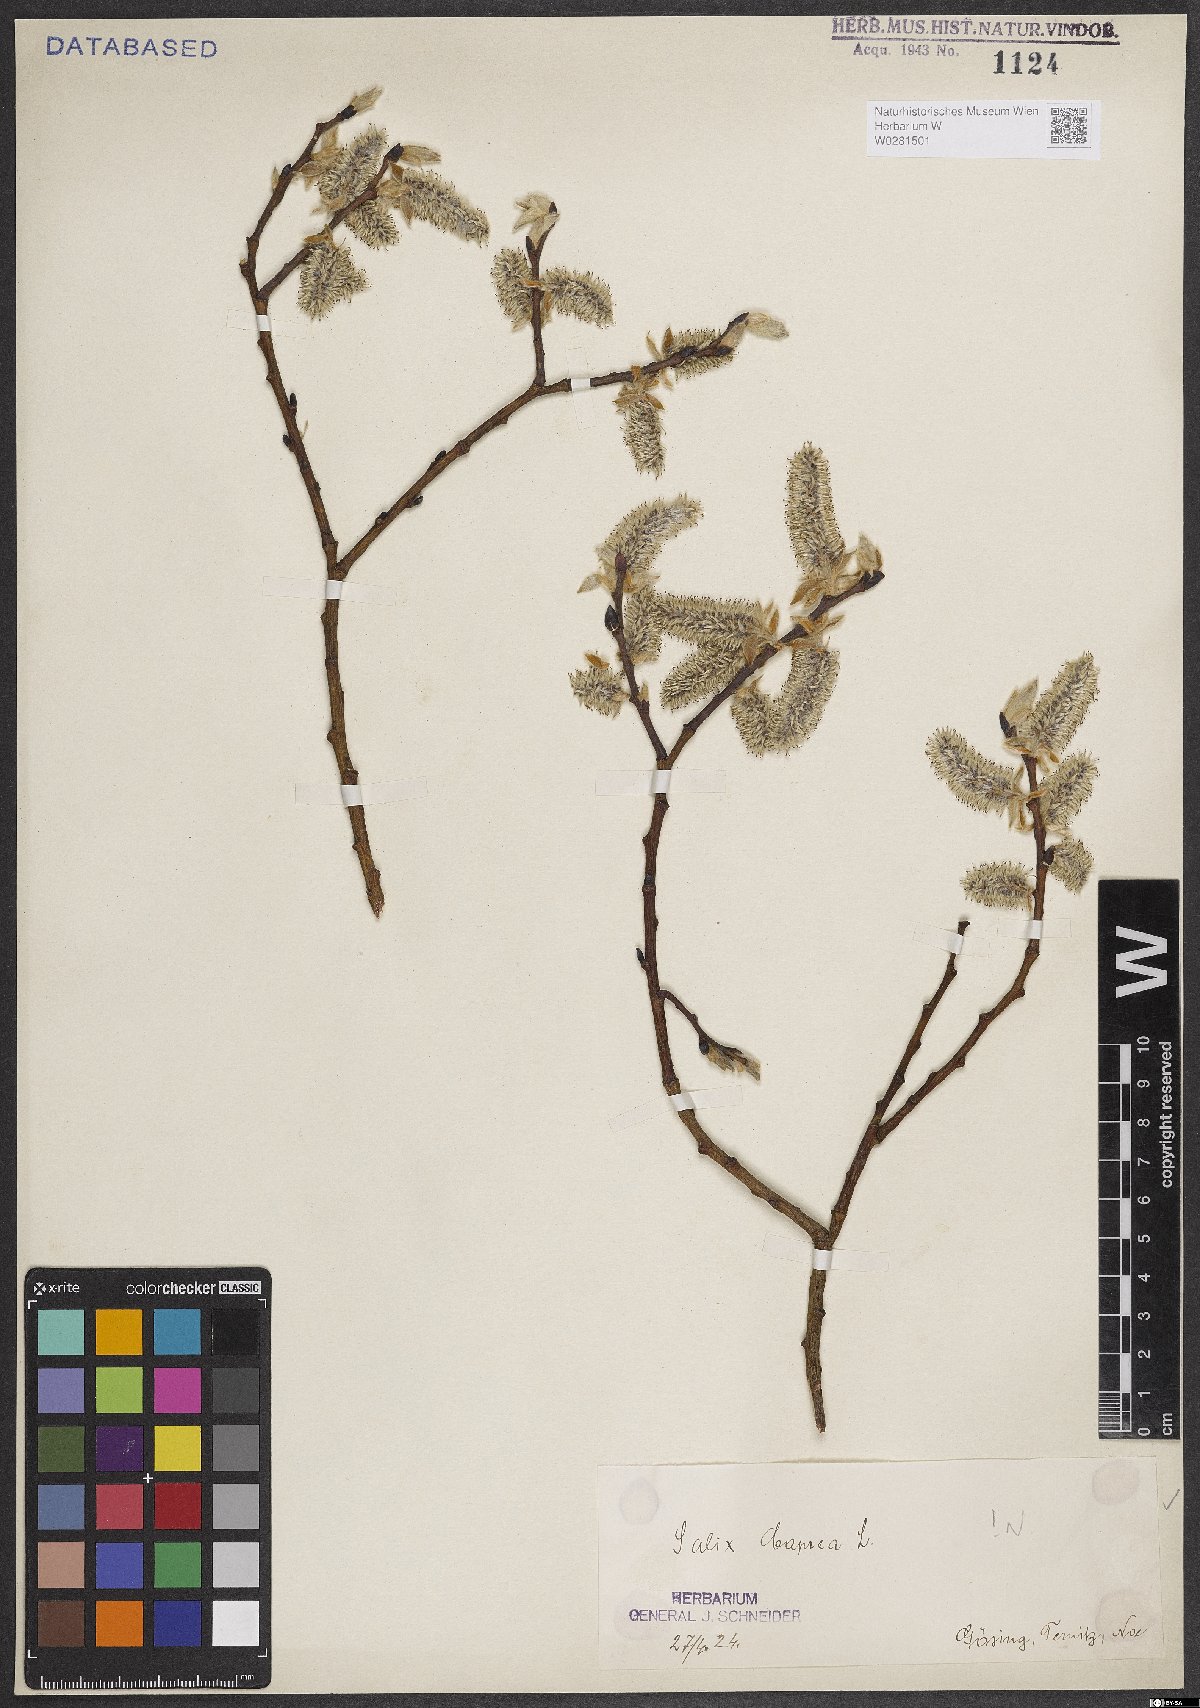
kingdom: Plantae
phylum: Tracheophyta
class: Magnoliopsida
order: Malpighiales
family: Salicaceae
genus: Salix
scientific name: Salix caprea
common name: Goat willow
